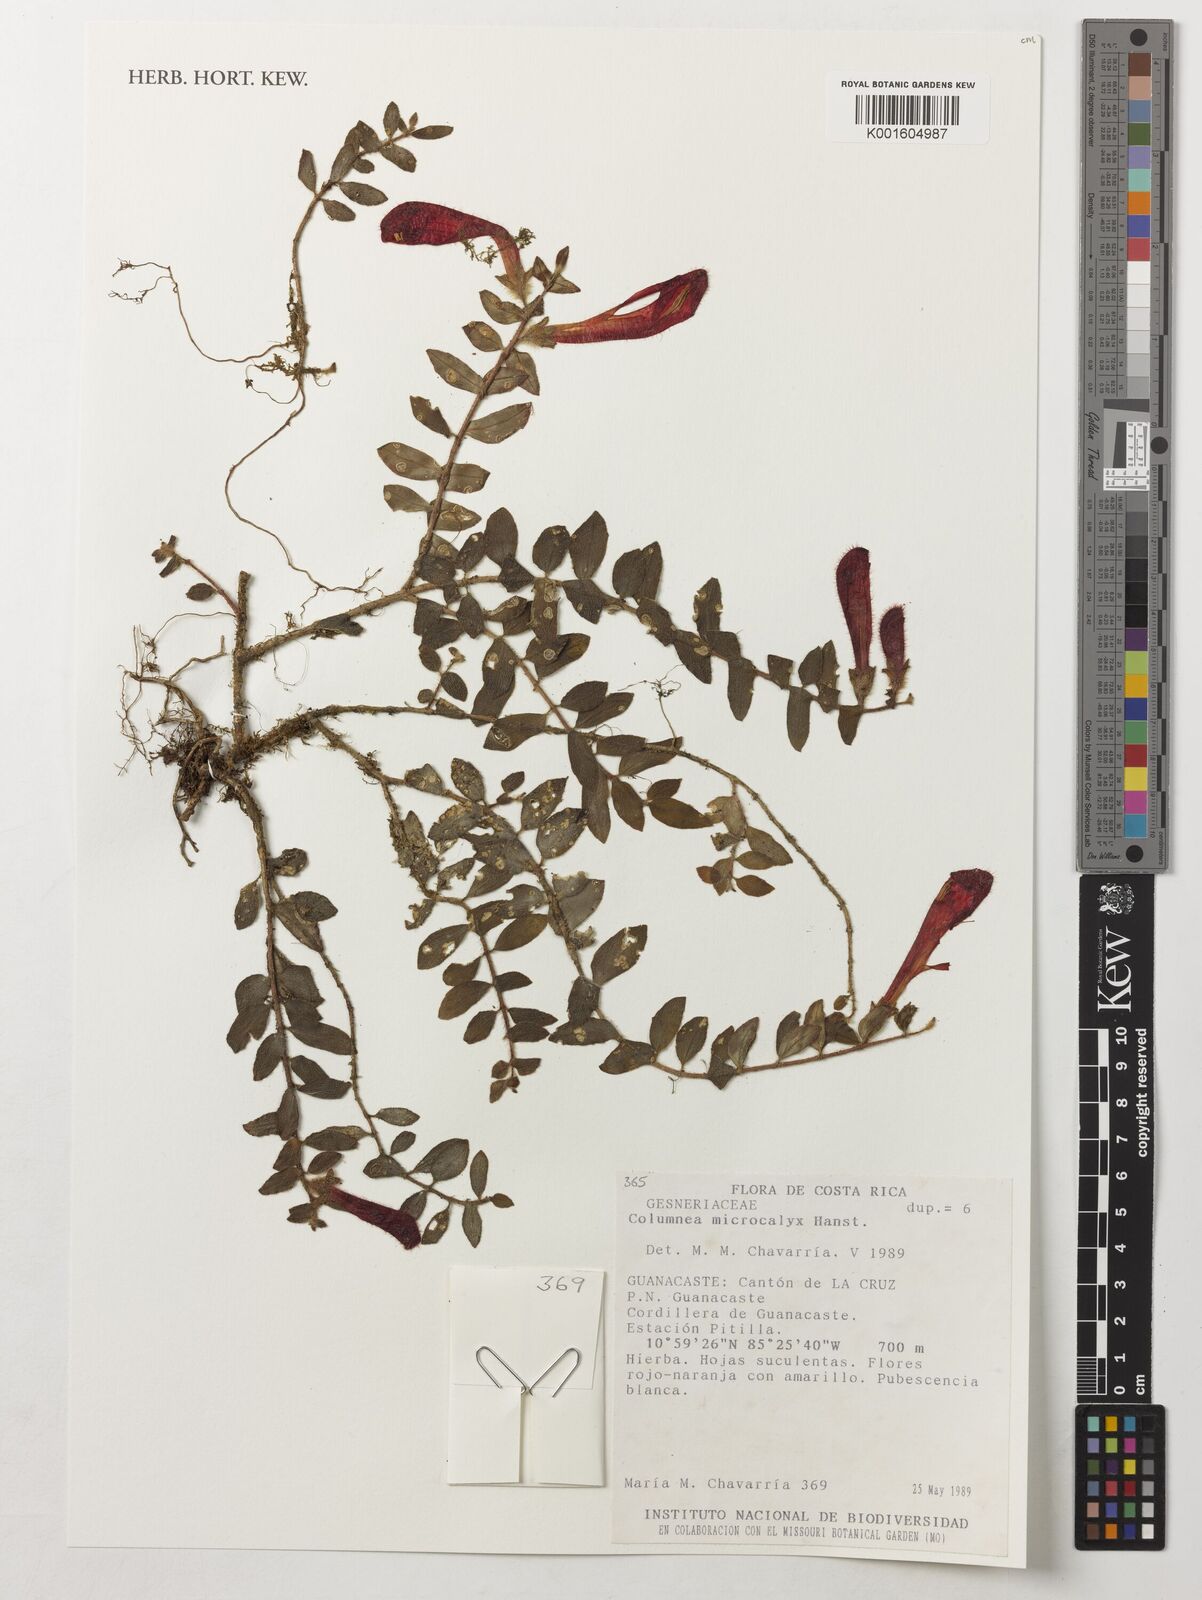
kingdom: Plantae
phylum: Tracheophyta
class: Magnoliopsida
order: Lamiales
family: Gesneriaceae
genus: Columnea
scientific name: Columnea microcalyx
